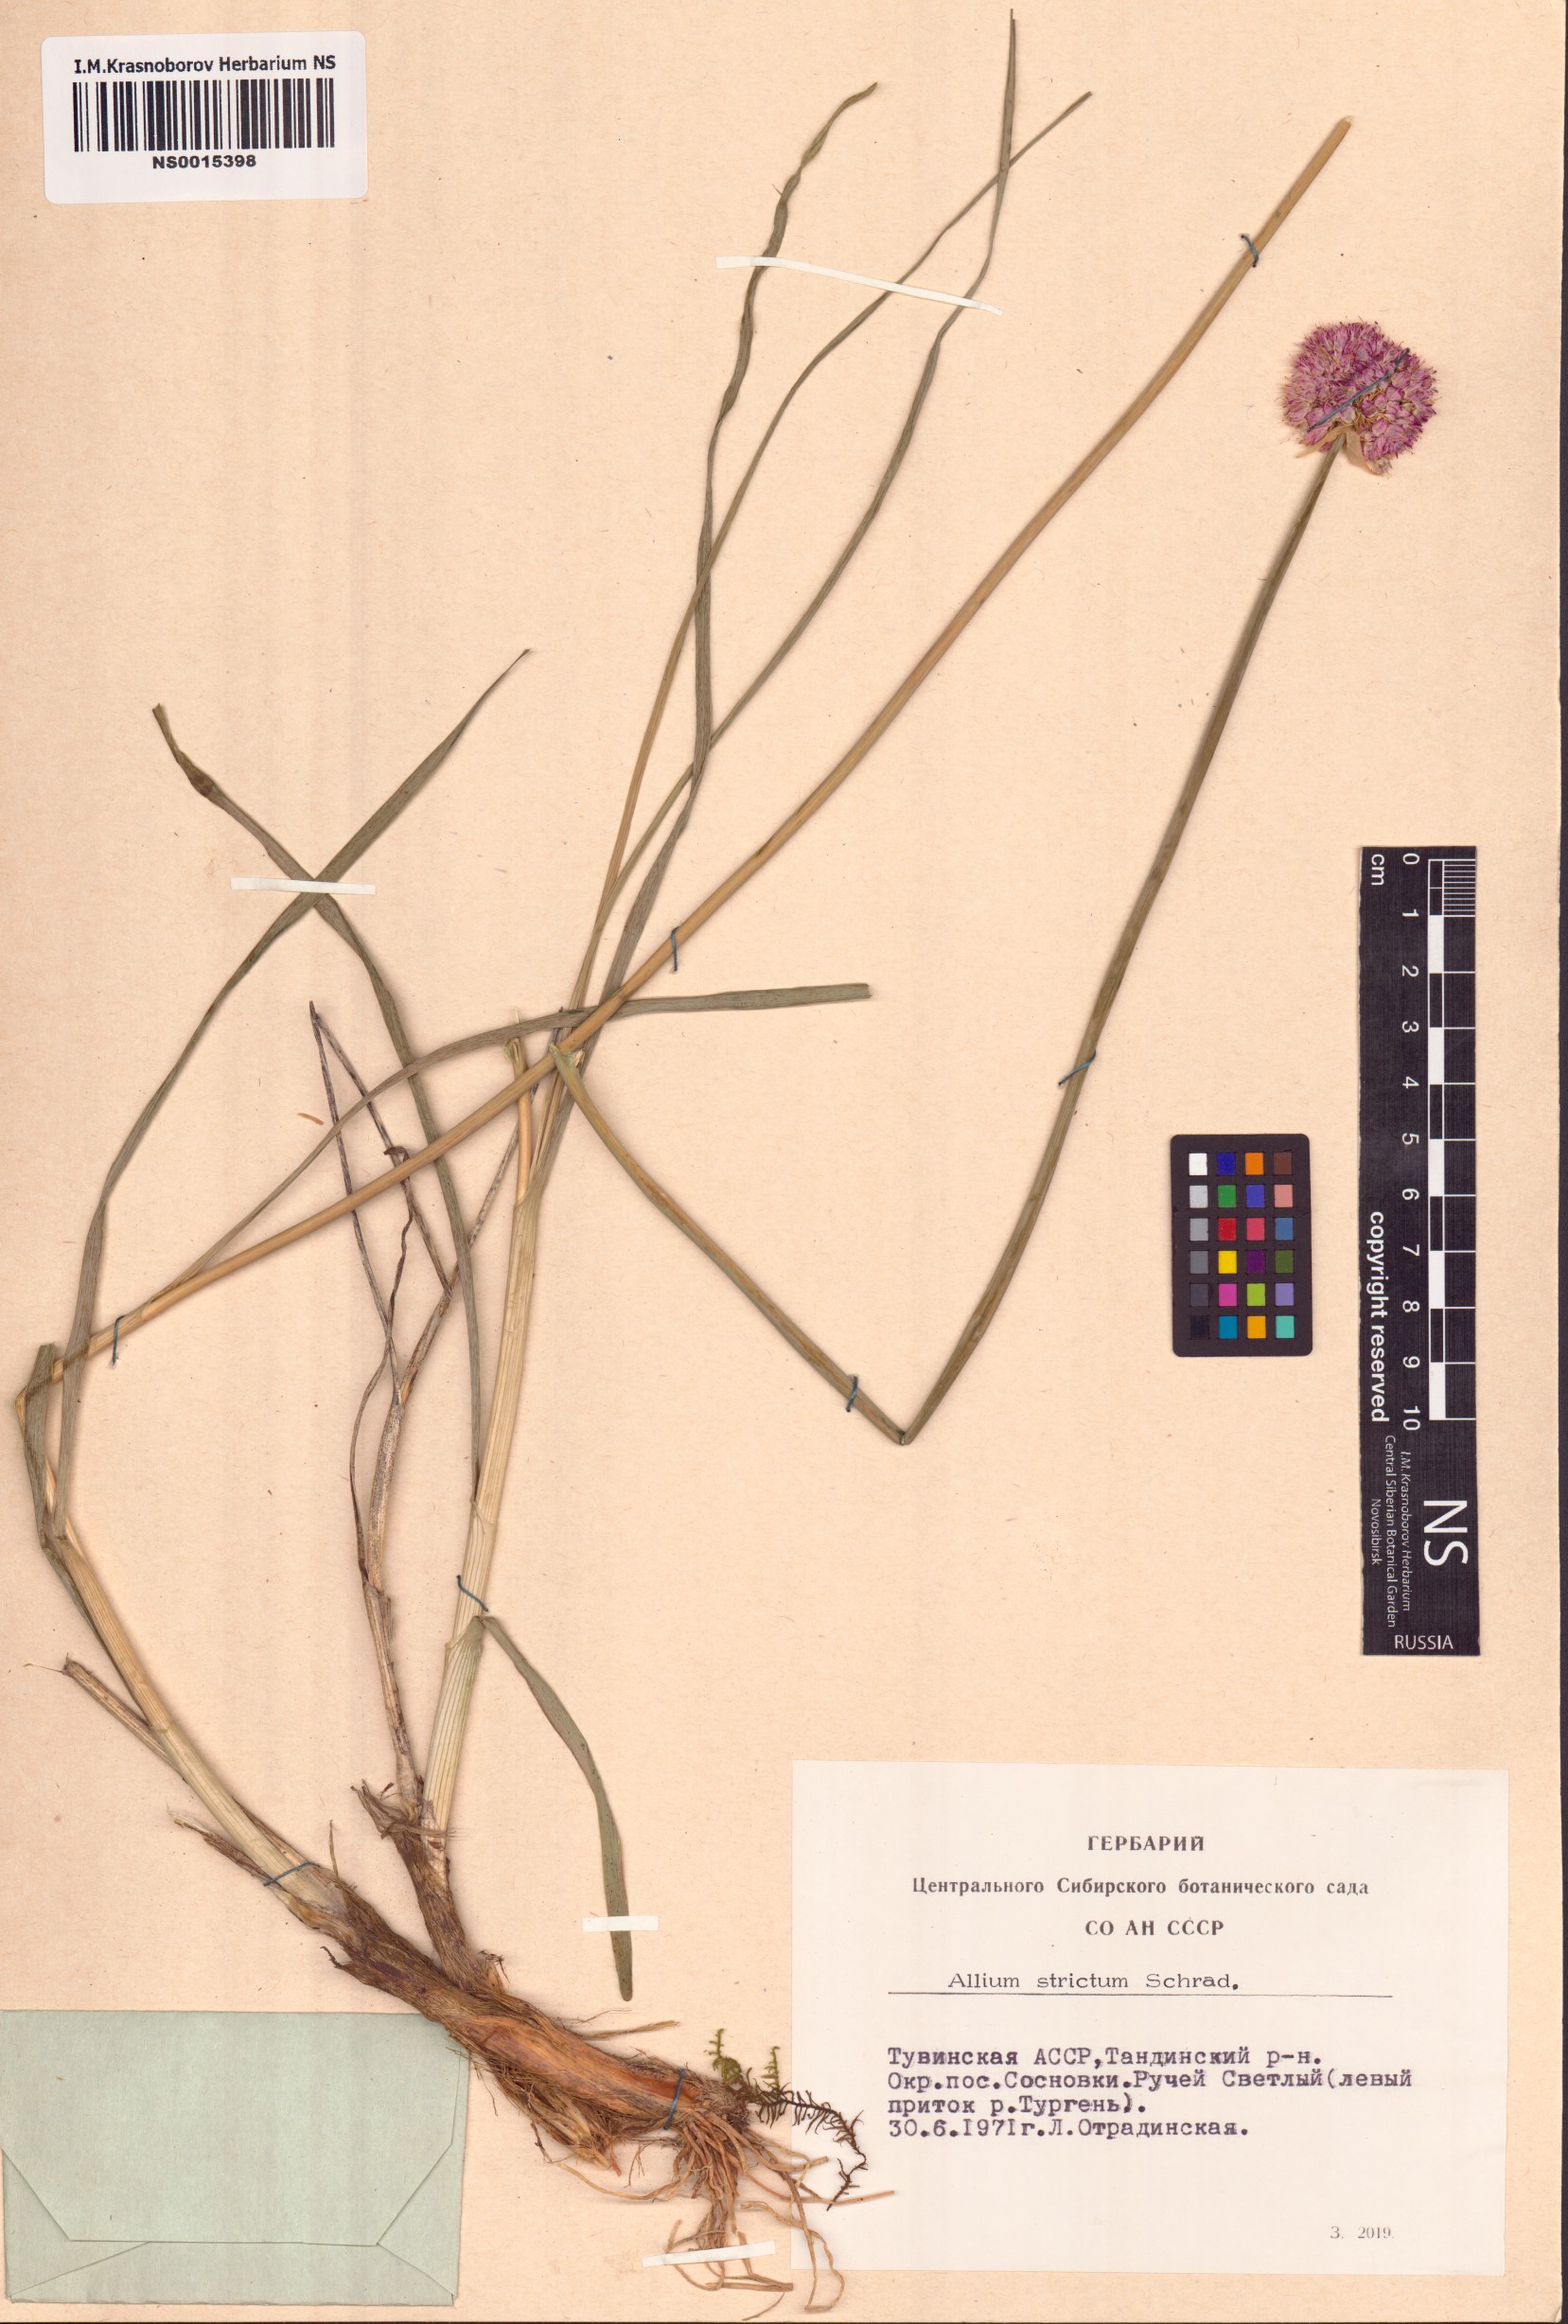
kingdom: Plantae
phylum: Tracheophyta
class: Liliopsida
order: Asparagales
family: Amaryllidaceae
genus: Allium
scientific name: Allium strictum
